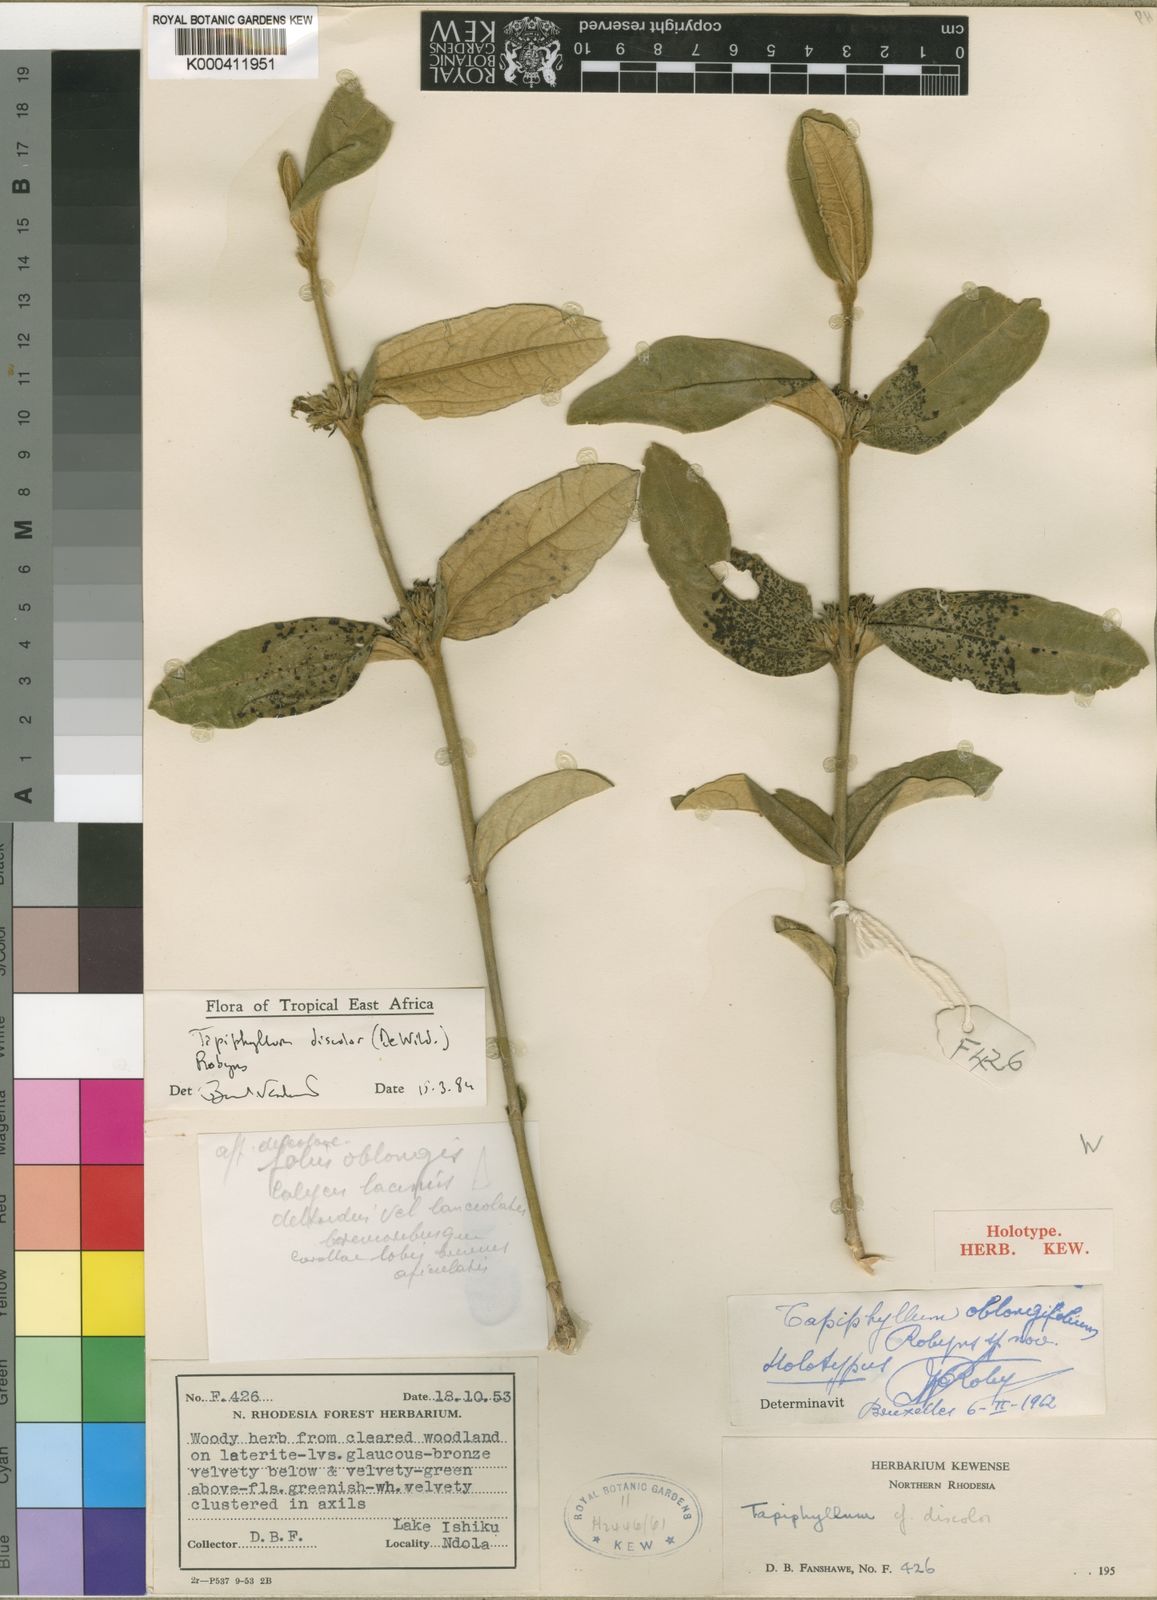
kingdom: Plantae
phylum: Tracheophyta
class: Magnoliopsida
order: Gentianales
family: Rubiaceae
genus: Vangueria
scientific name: Vangueria discolor
